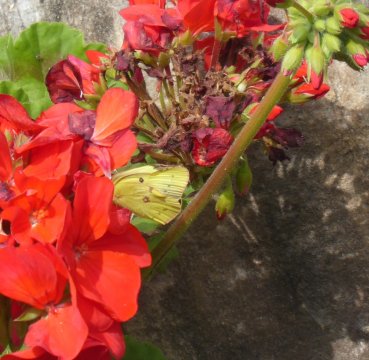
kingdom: Animalia
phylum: Arthropoda
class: Insecta
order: Lepidoptera
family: Pieridae
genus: Colias
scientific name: Colias philodice
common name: Clouded Sulphur
